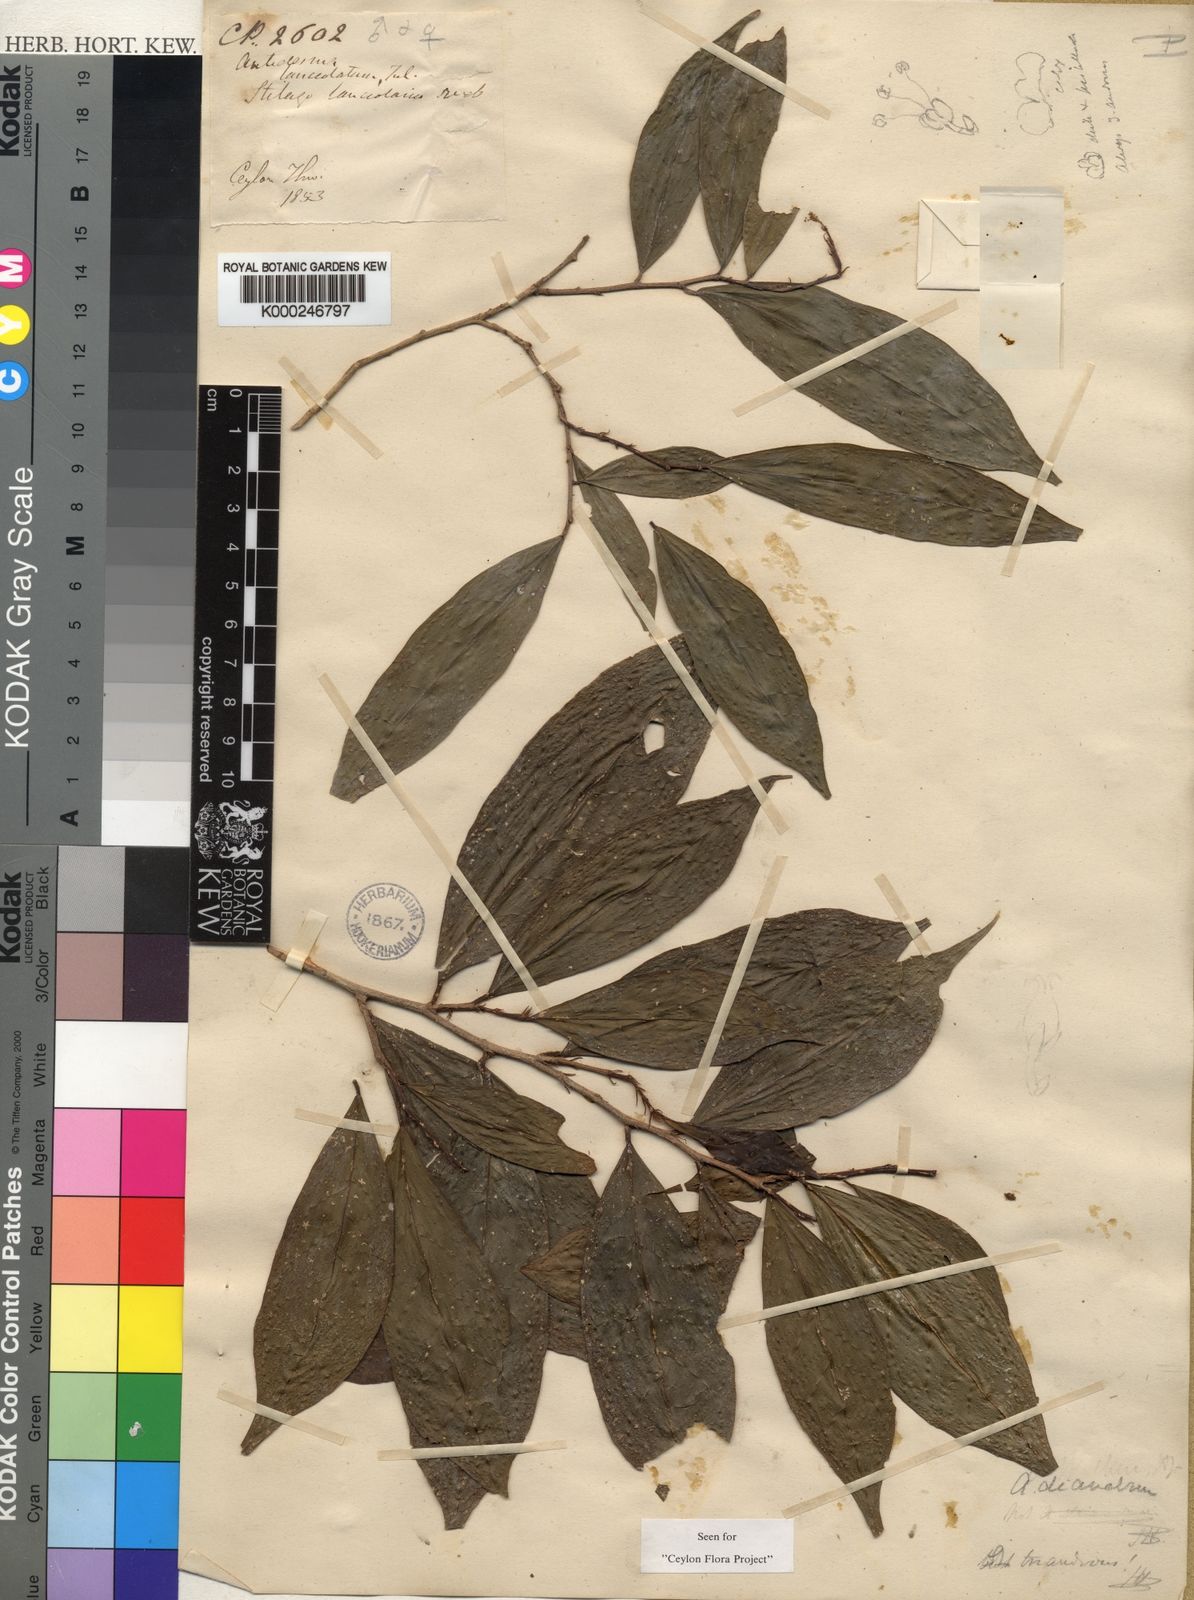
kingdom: Plantae
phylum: Tracheophyta
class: Magnoliopsida
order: Malpighiales
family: Phyllanthaceae
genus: Antidesma
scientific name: Antidesma comptum
